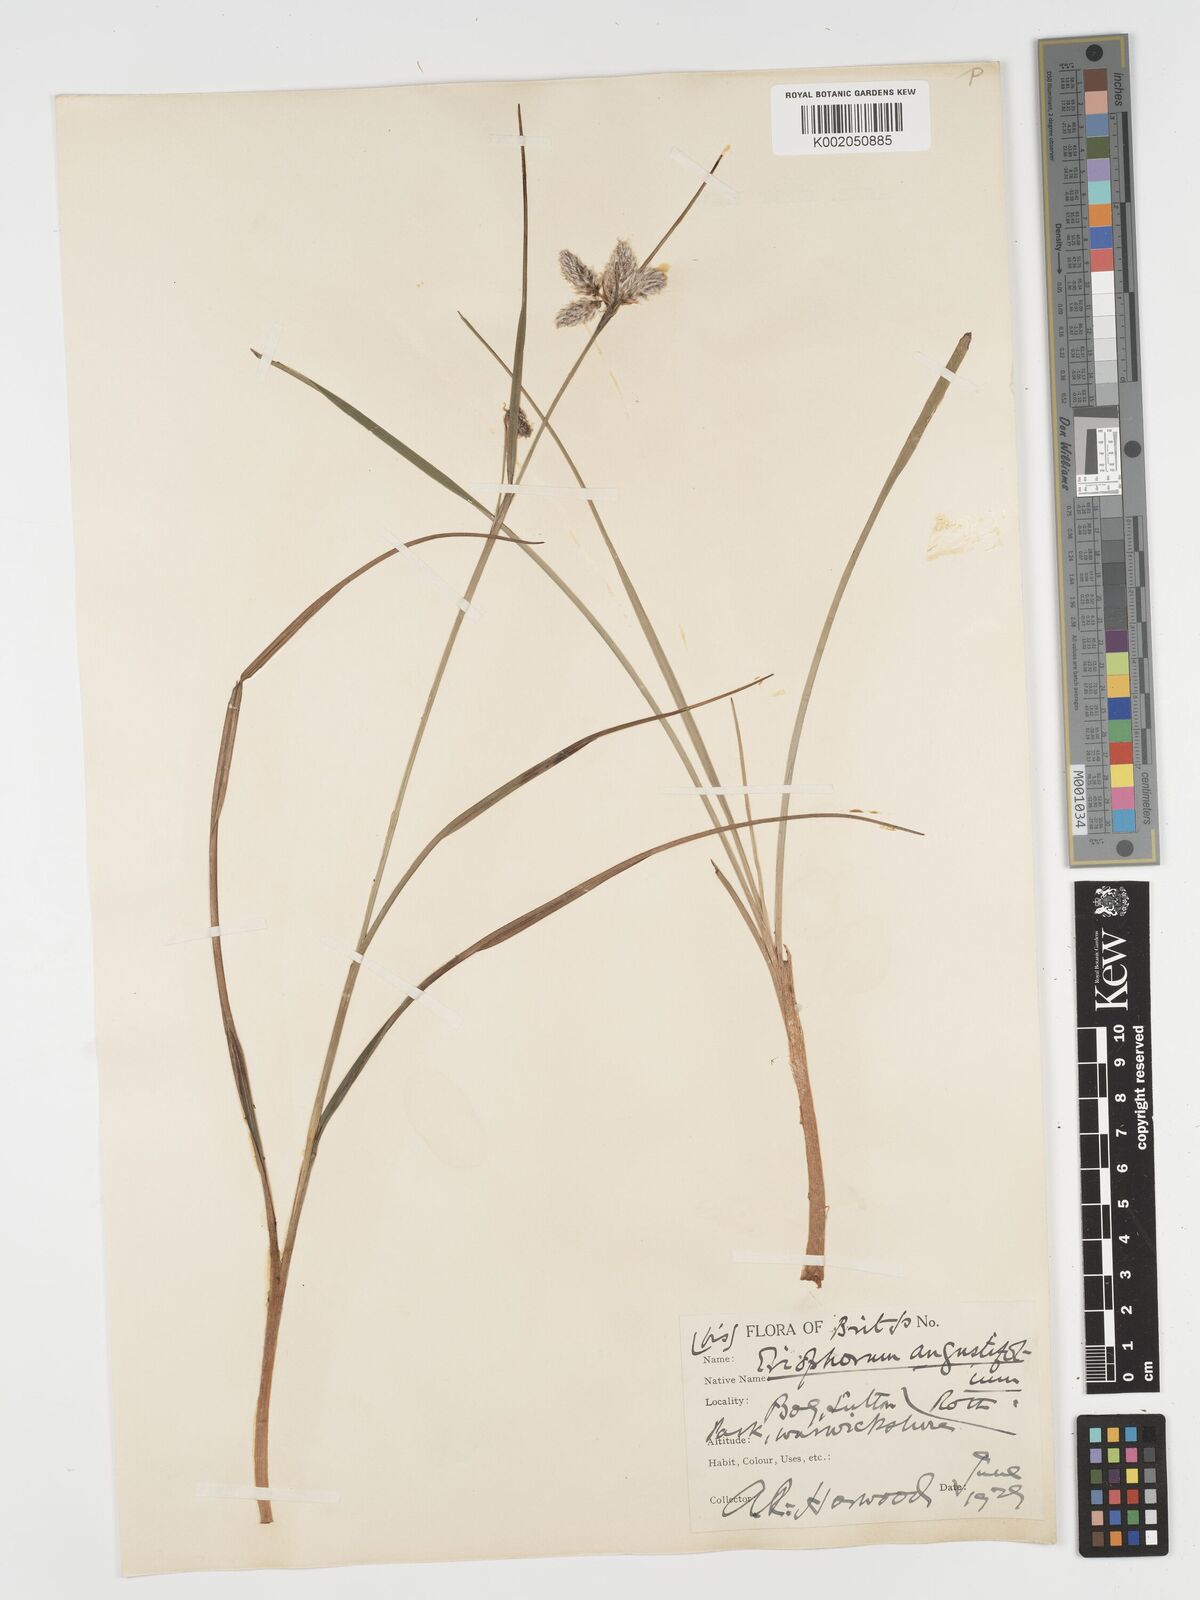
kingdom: Plantae
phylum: Tracheophyta
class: Liliopsida
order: Poales
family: Cyperaceae
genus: Eriophorum
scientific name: Eriophorum angustifolium
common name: Common cottongrass
